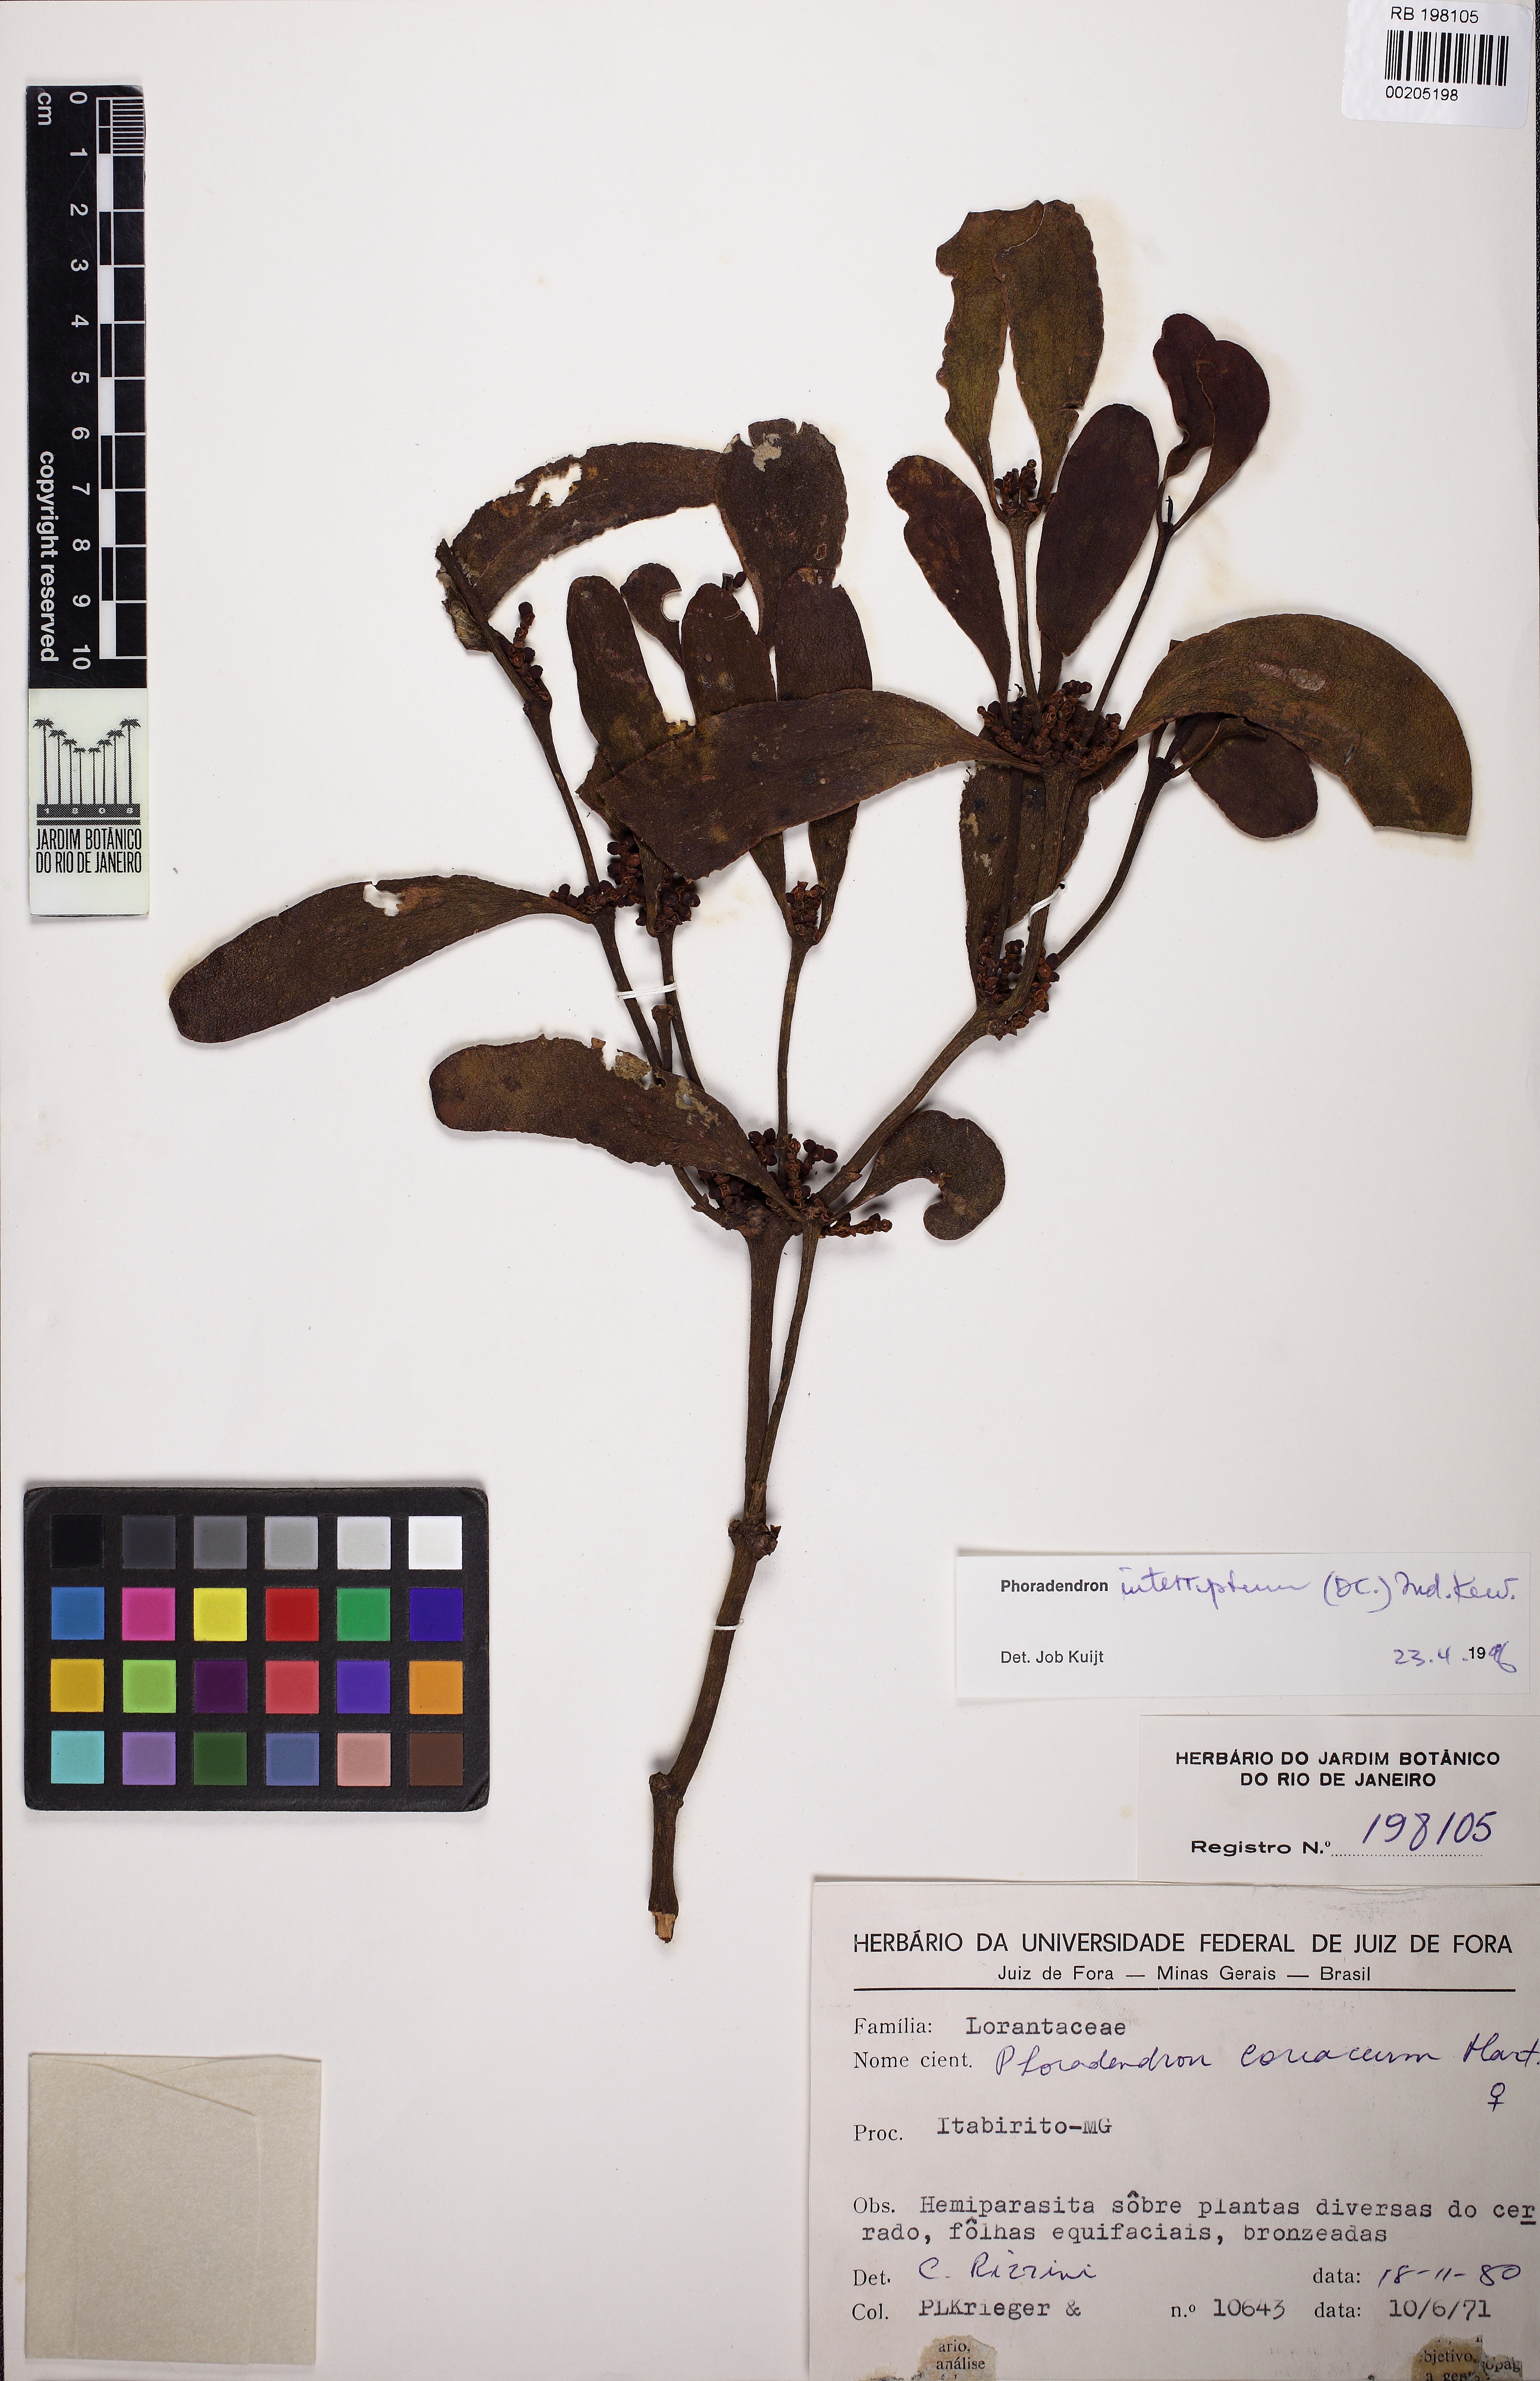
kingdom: Plantae
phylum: Tracheophyta
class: Magnoliopsida
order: Santalales
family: Viscaceae
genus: Phoradendron
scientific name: Phoradendron interruptum
